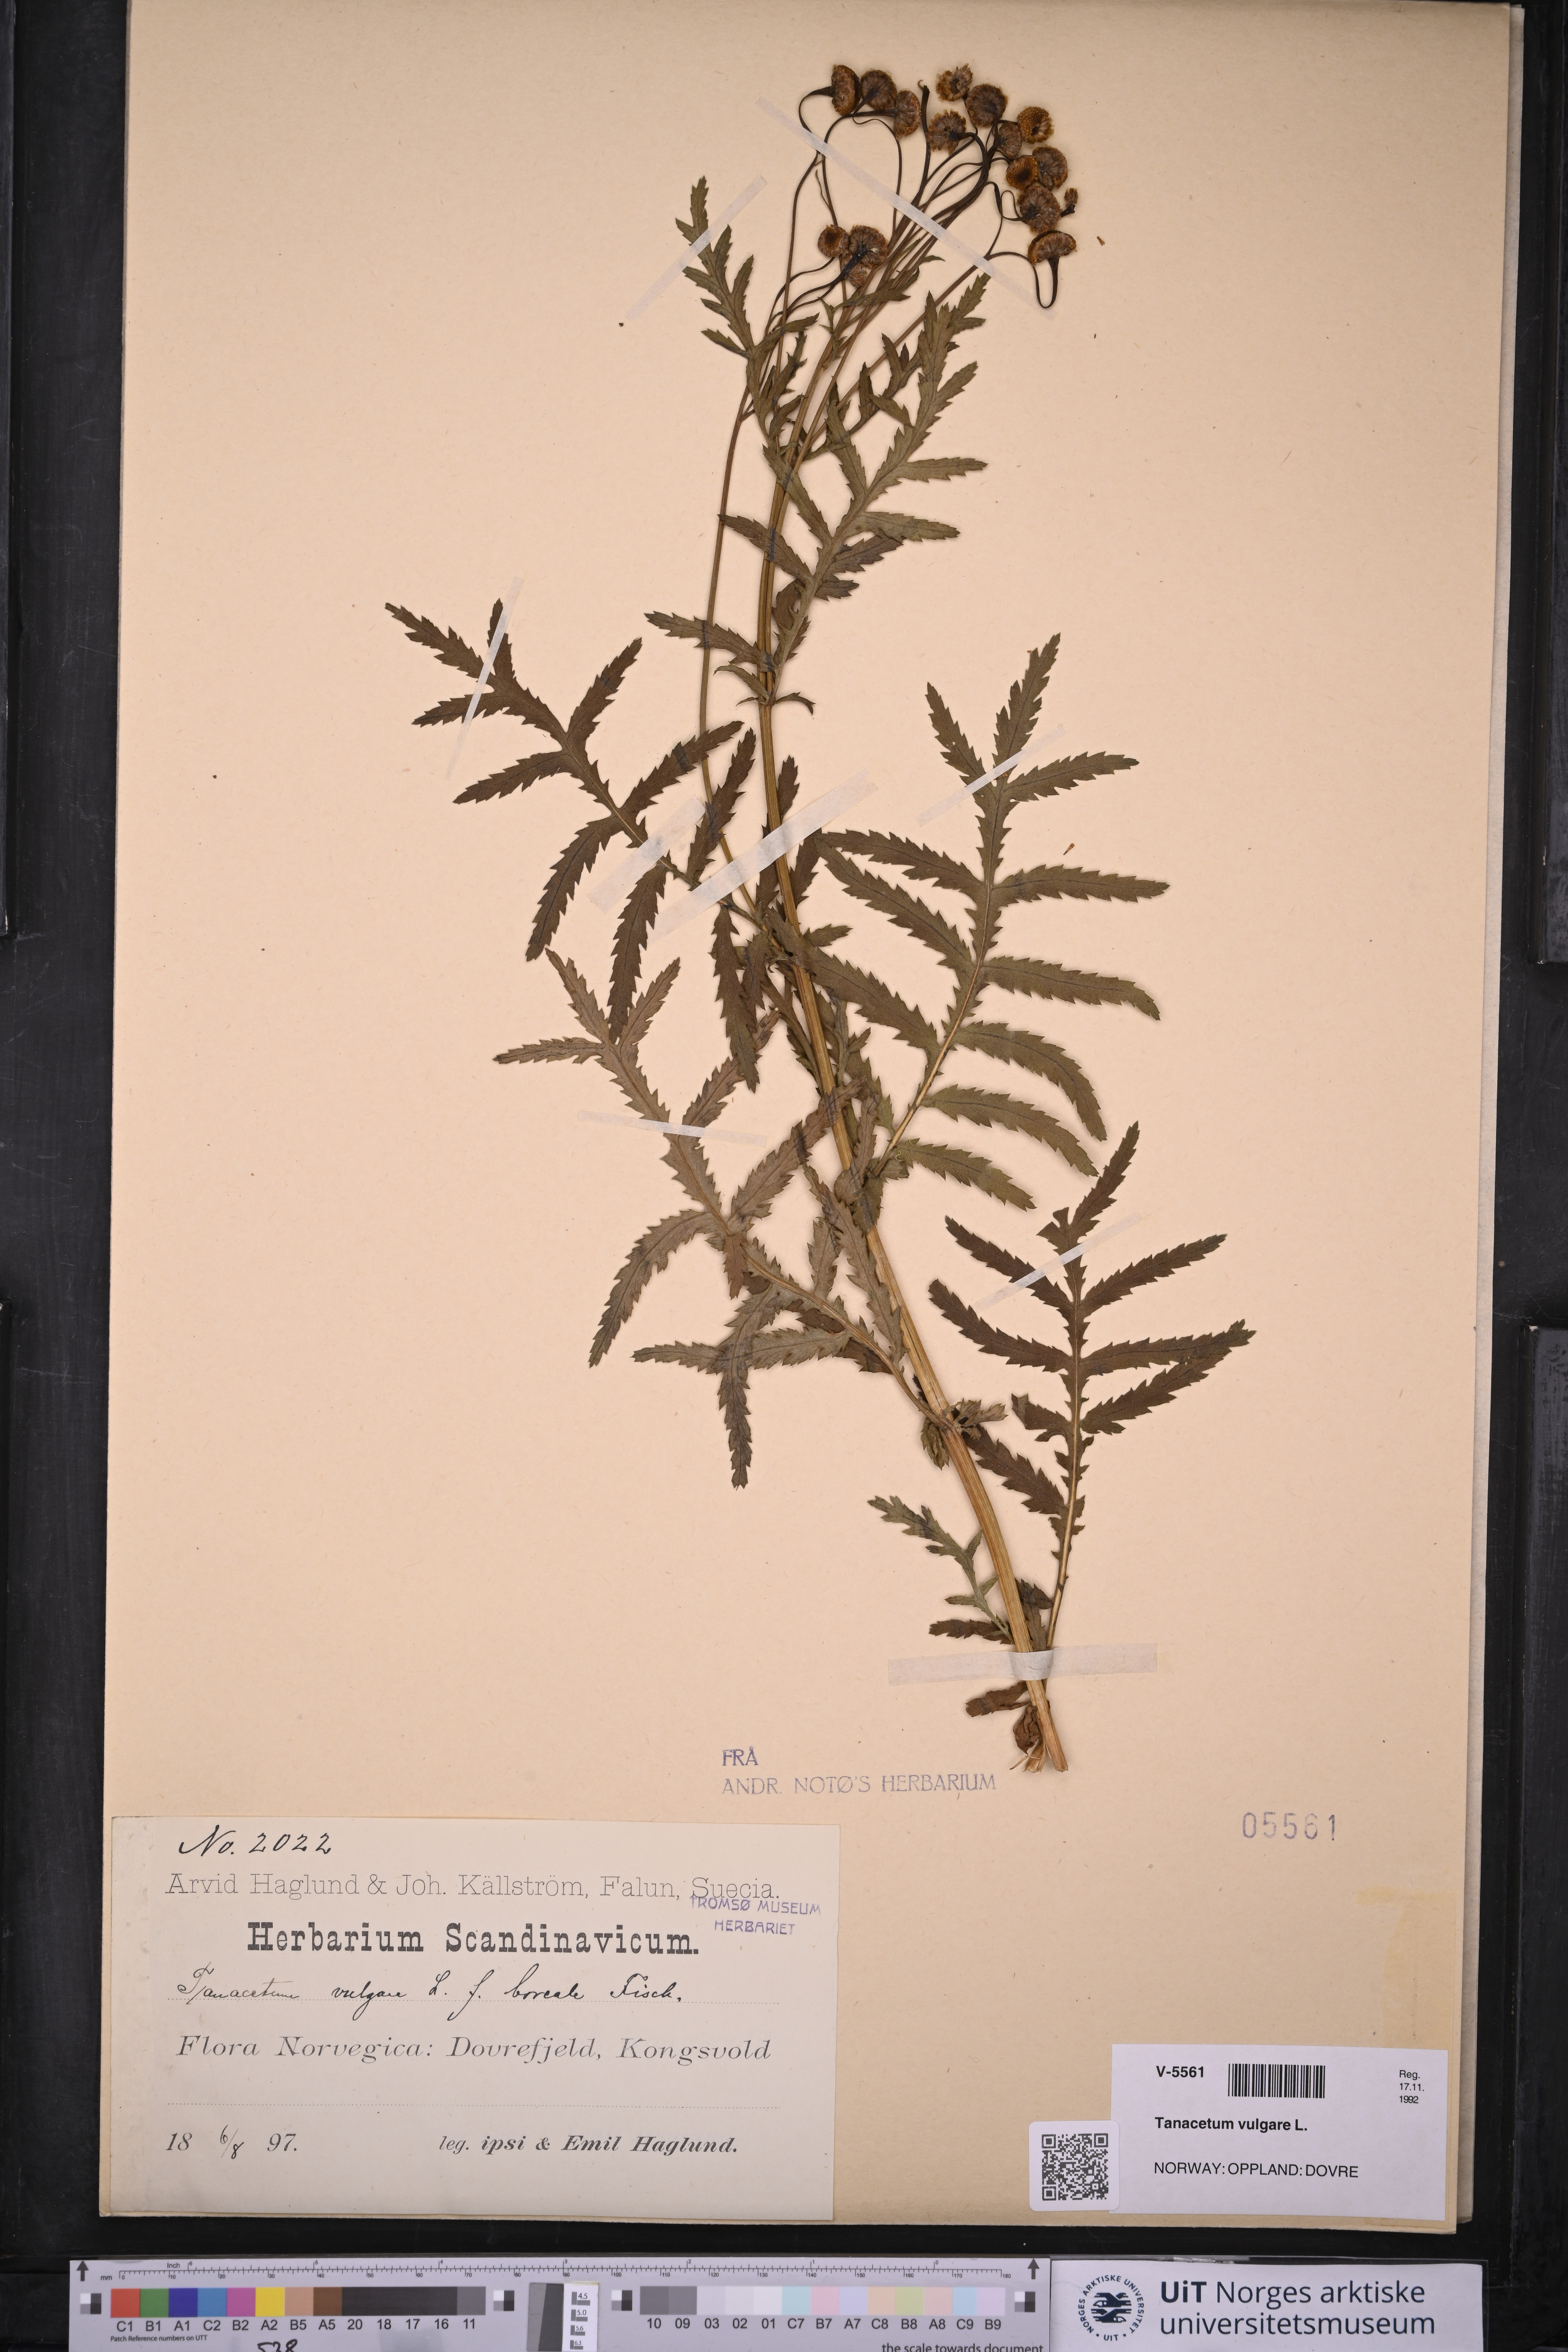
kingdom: Plantae
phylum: Tracheophyta
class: Magnoliopsida
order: Asterales
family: Asteraceae
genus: Tanacetum
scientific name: Tanacetum vulgare
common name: Common tansy
